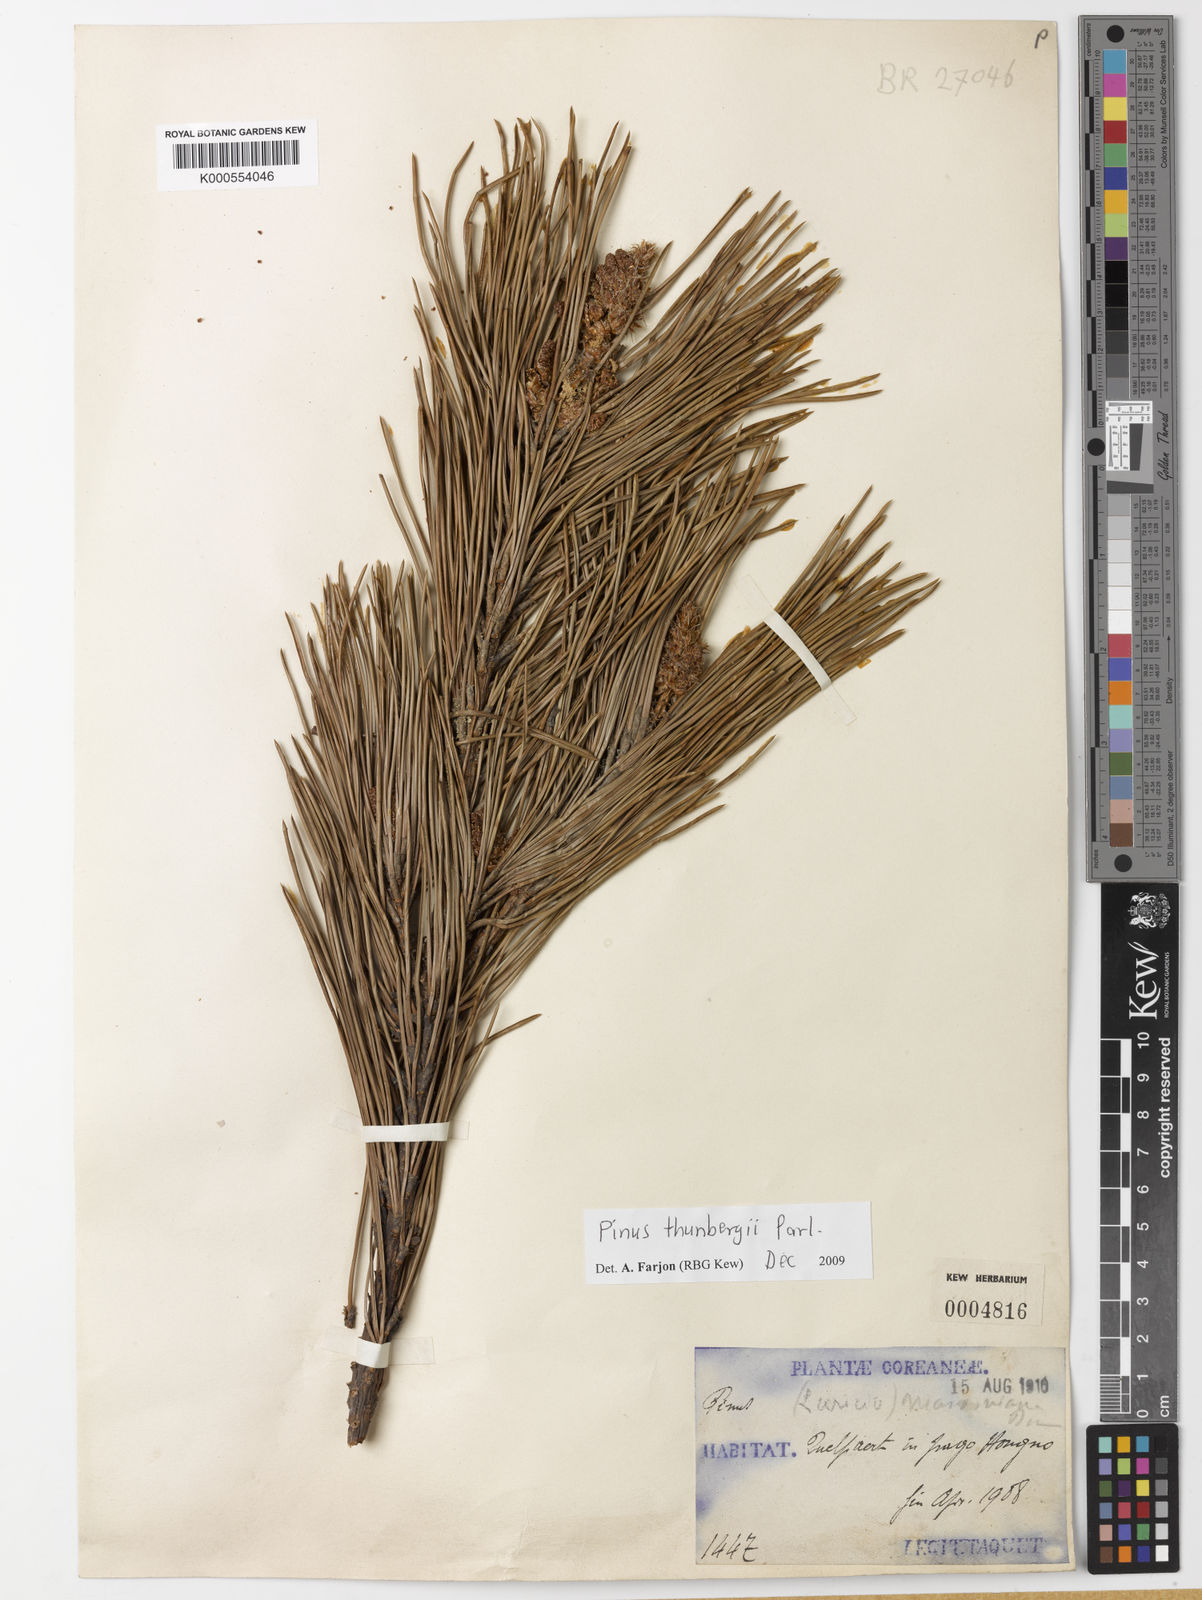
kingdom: Plantae
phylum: Tracheophyta
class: Pinopsida
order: Pinales
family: Pinaceae
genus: Pinus
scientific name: Pinus thunbergii
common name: Japanese black pine
